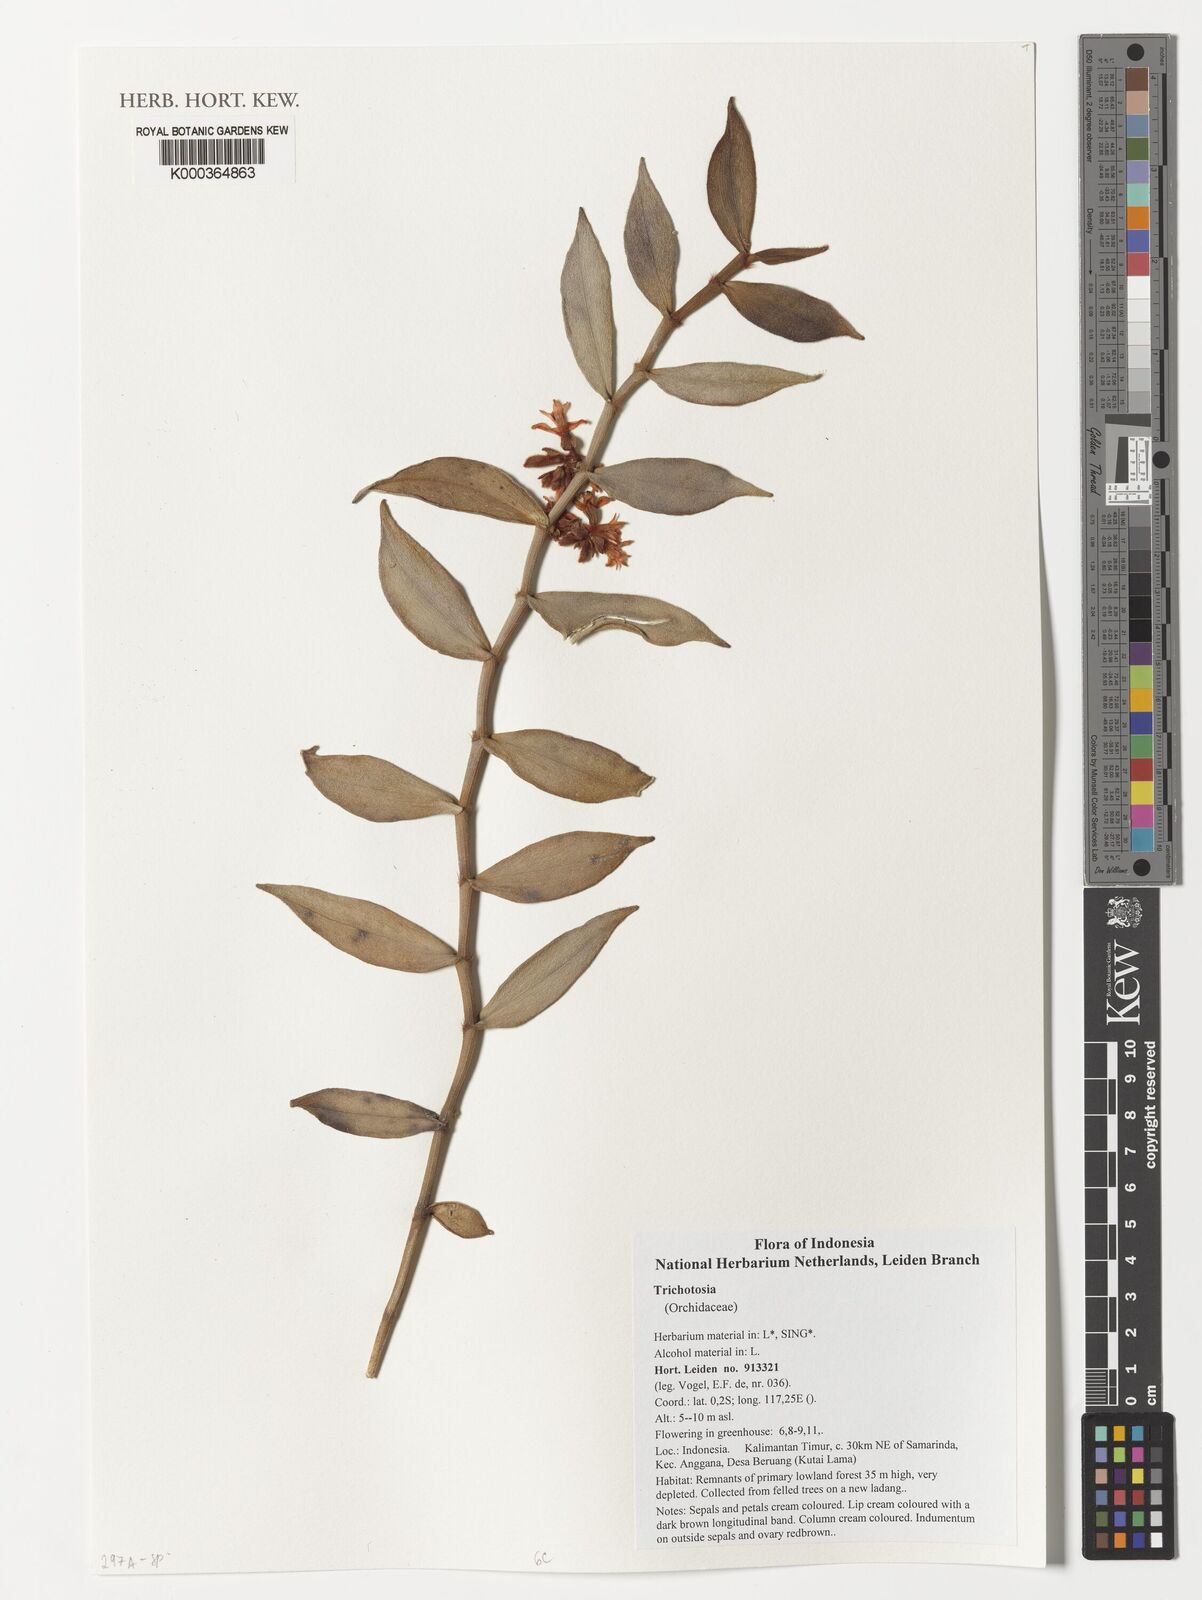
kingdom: Plantae
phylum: Tracheophyta
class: Liliopsida
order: Asparagales
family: Orchidaceae
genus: Trichotosia
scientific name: Trichotosia
